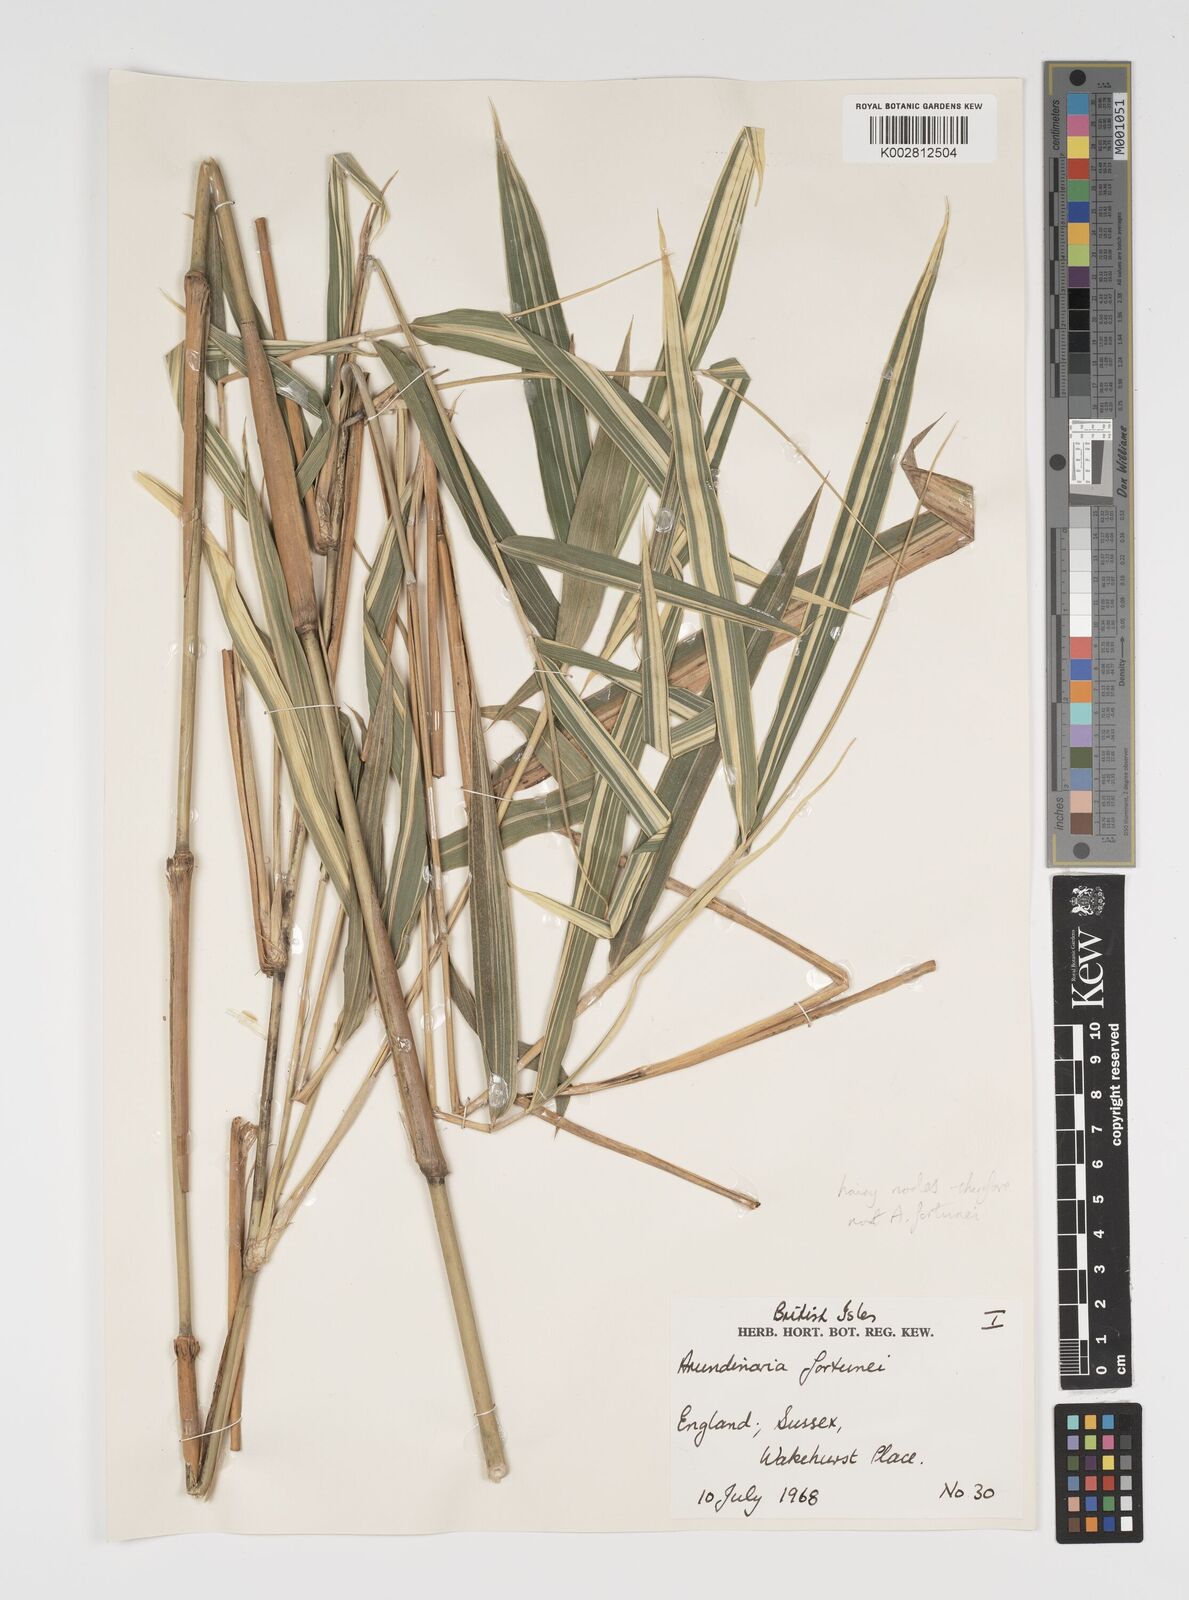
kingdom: Plantae
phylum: Tracheophyta
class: Liliopsida
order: Poales
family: Poaceae
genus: Arundinaria
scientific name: Arundinaria
